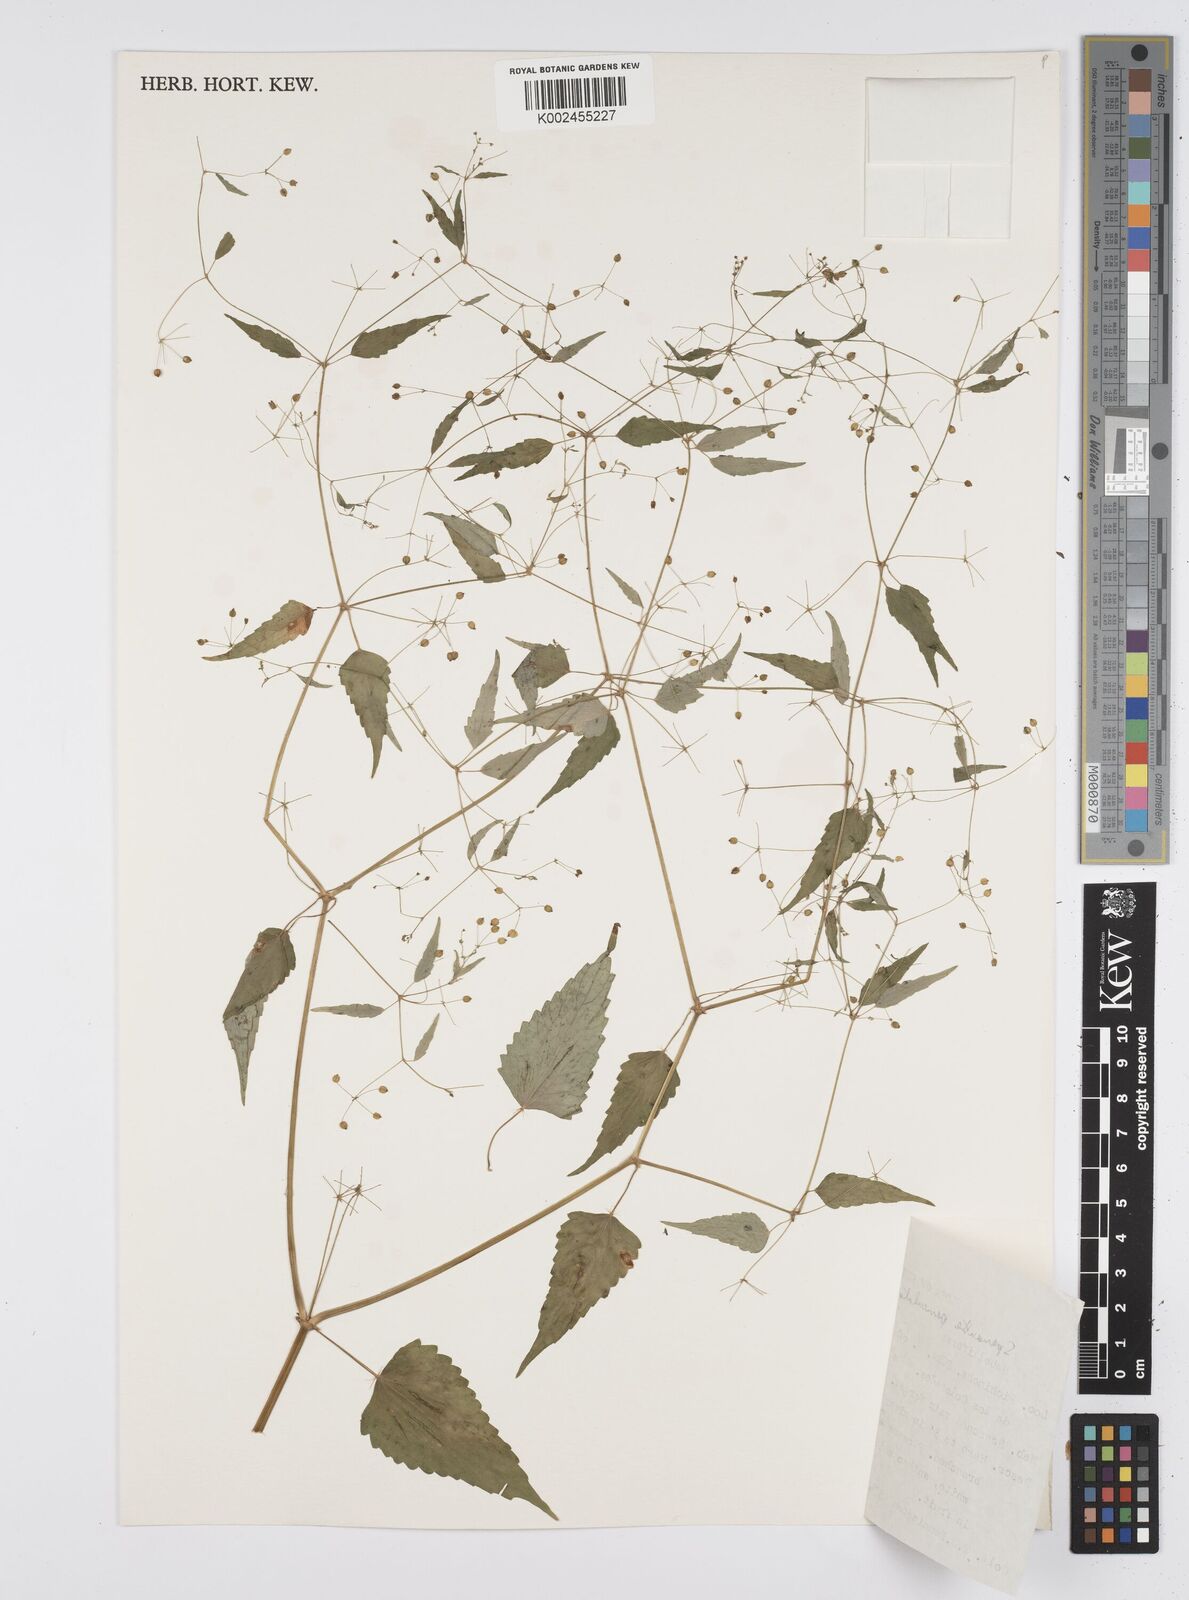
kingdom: Plantae
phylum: Tracheophyta
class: Magnoliopsida
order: Apiales
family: Apiaceae
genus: Azorella
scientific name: Azorella
